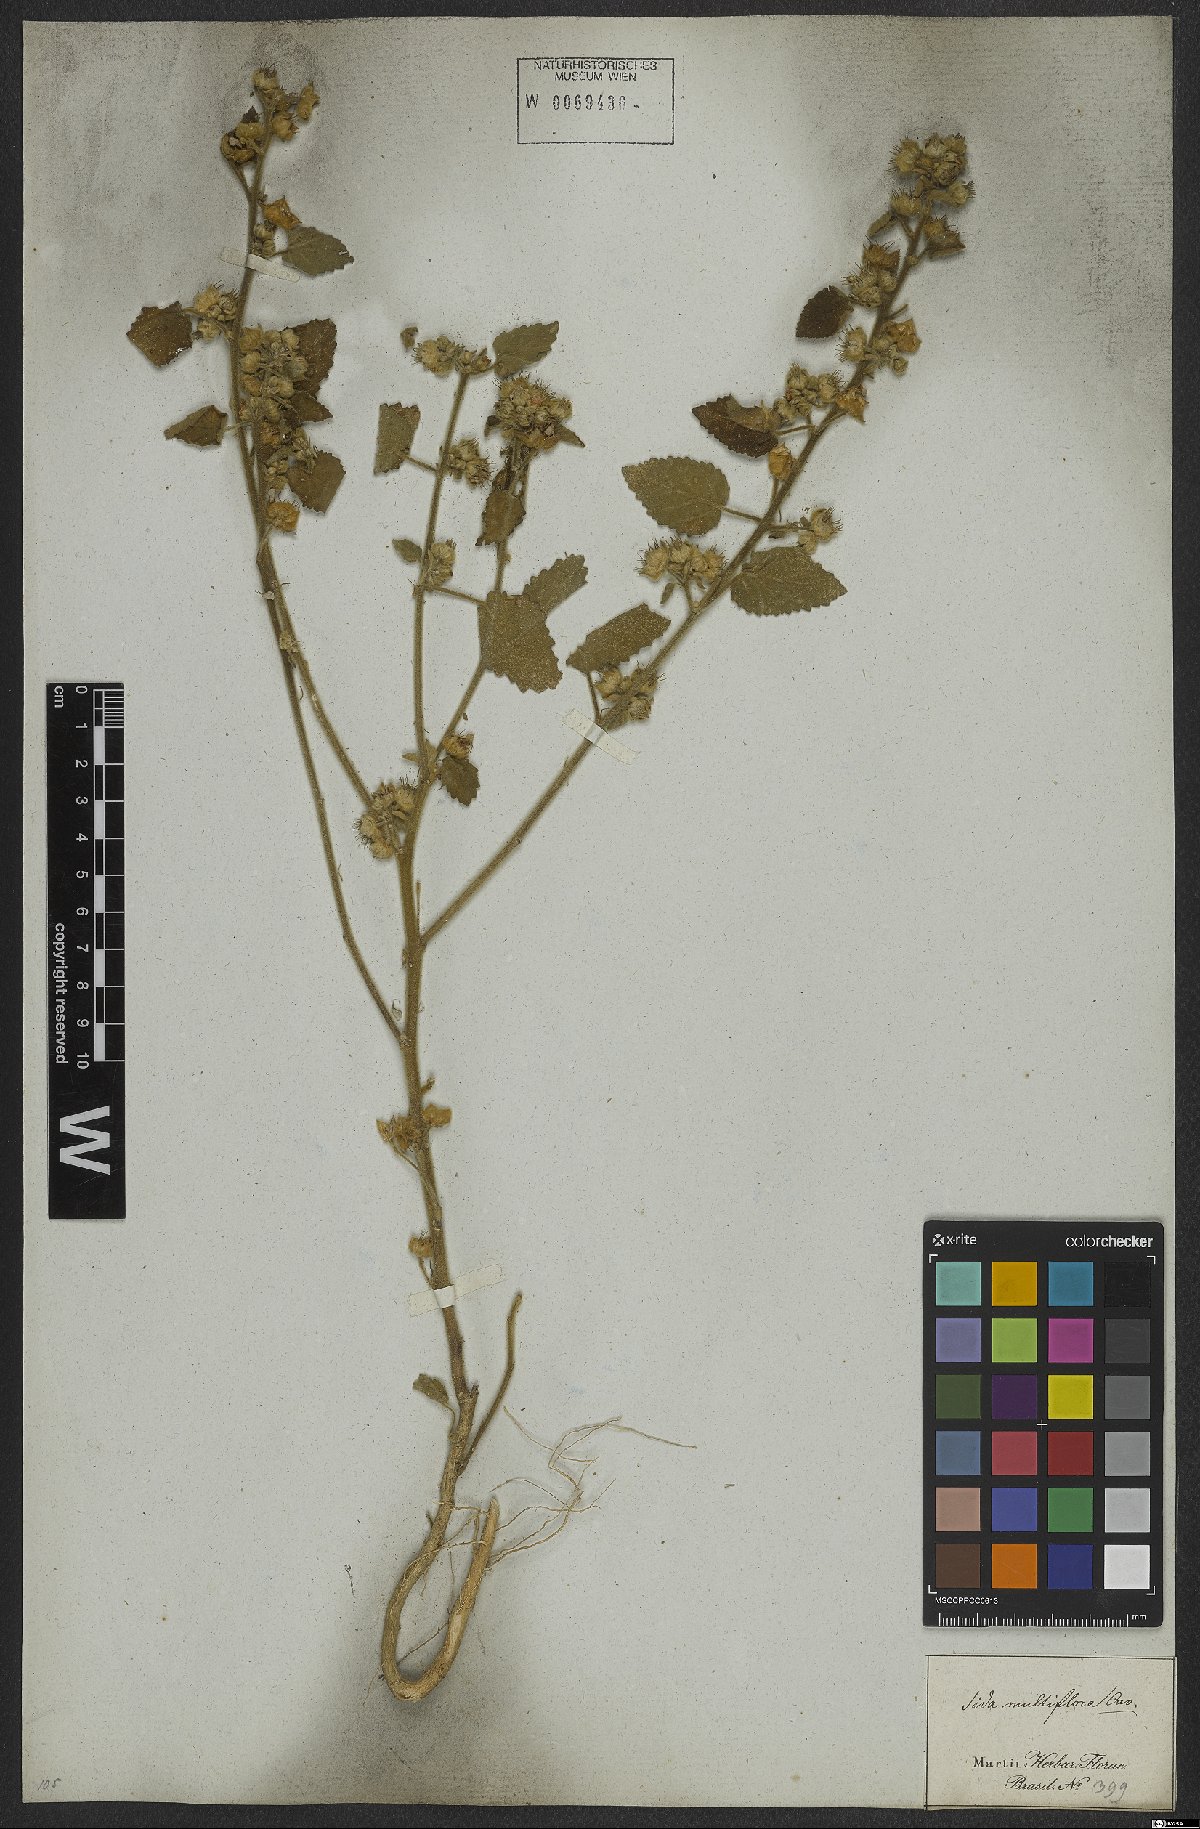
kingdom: Plantae
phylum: Tracheophyta
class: Magnoliopsida
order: Malvales
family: Malvaceae
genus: Sida
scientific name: Sida cordifolia
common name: Ilima
